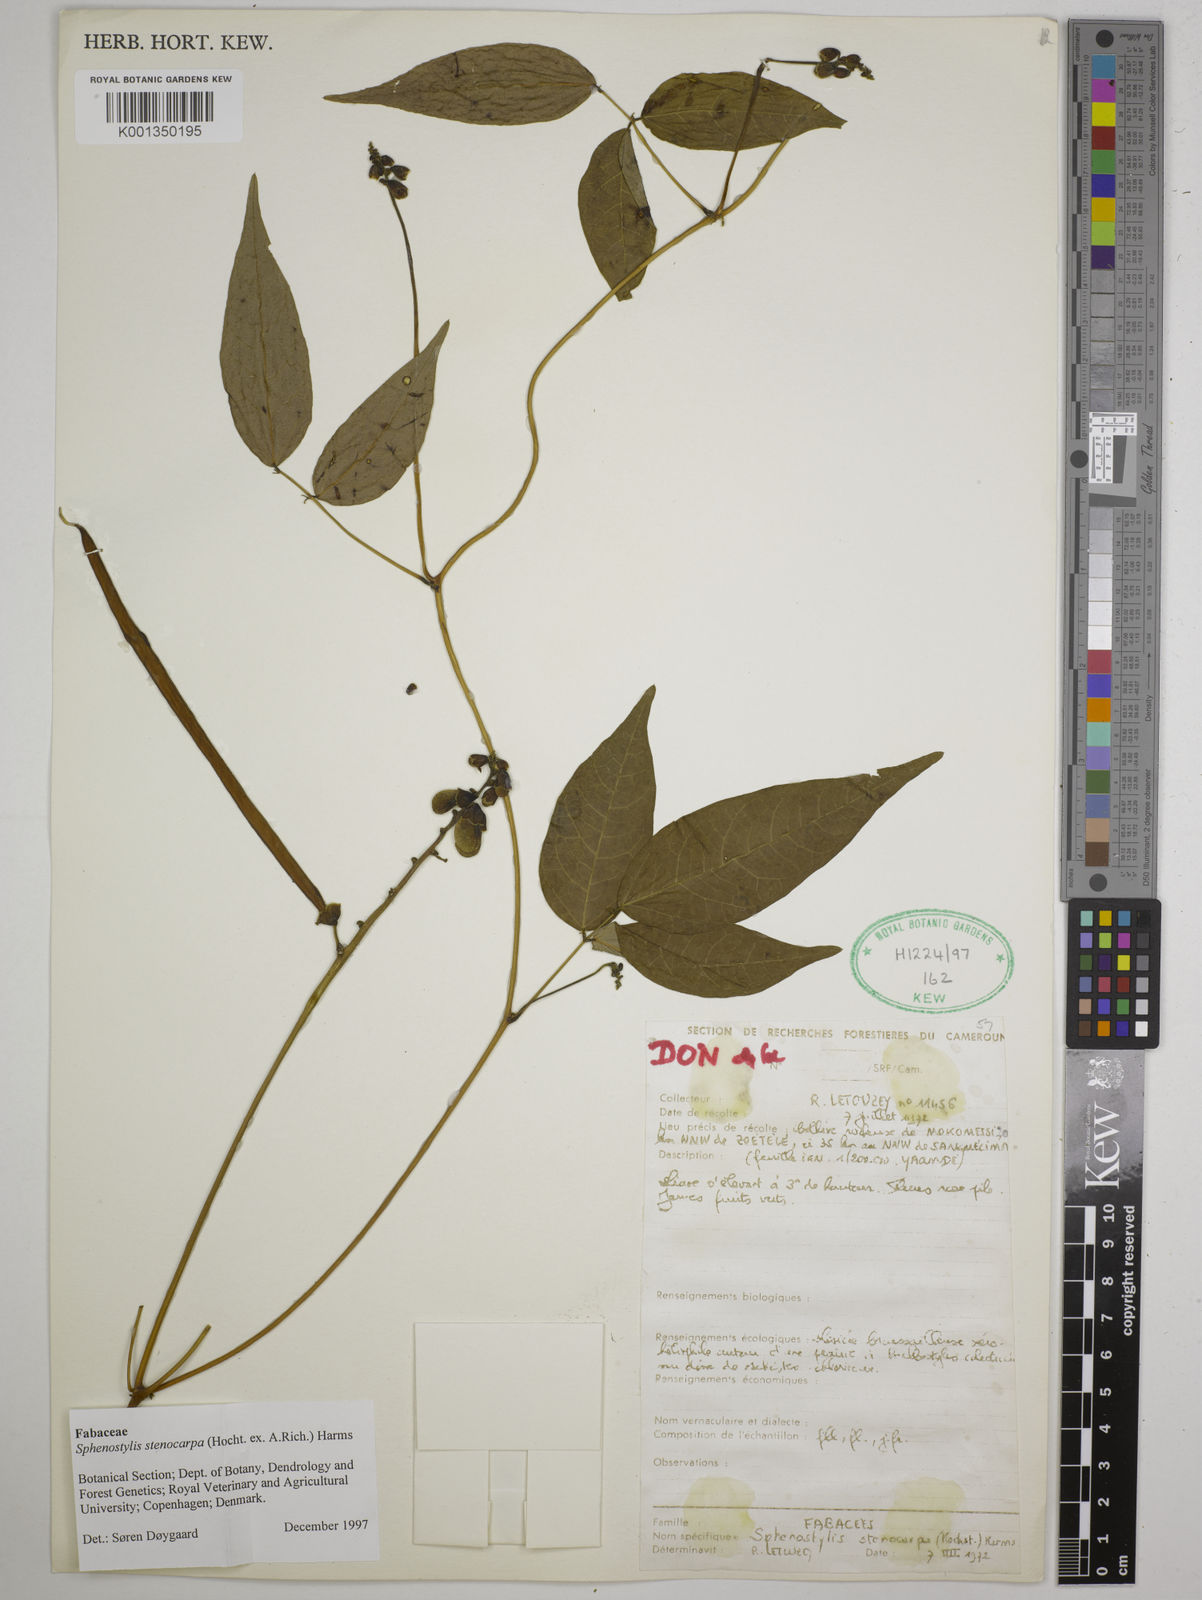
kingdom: Plantae
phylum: Tracheophyta
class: Magnoliopsida
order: Fabales
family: Fabaceae
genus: Sphenostylis
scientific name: Sphenostylis stenocarpa
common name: Yam-pea
